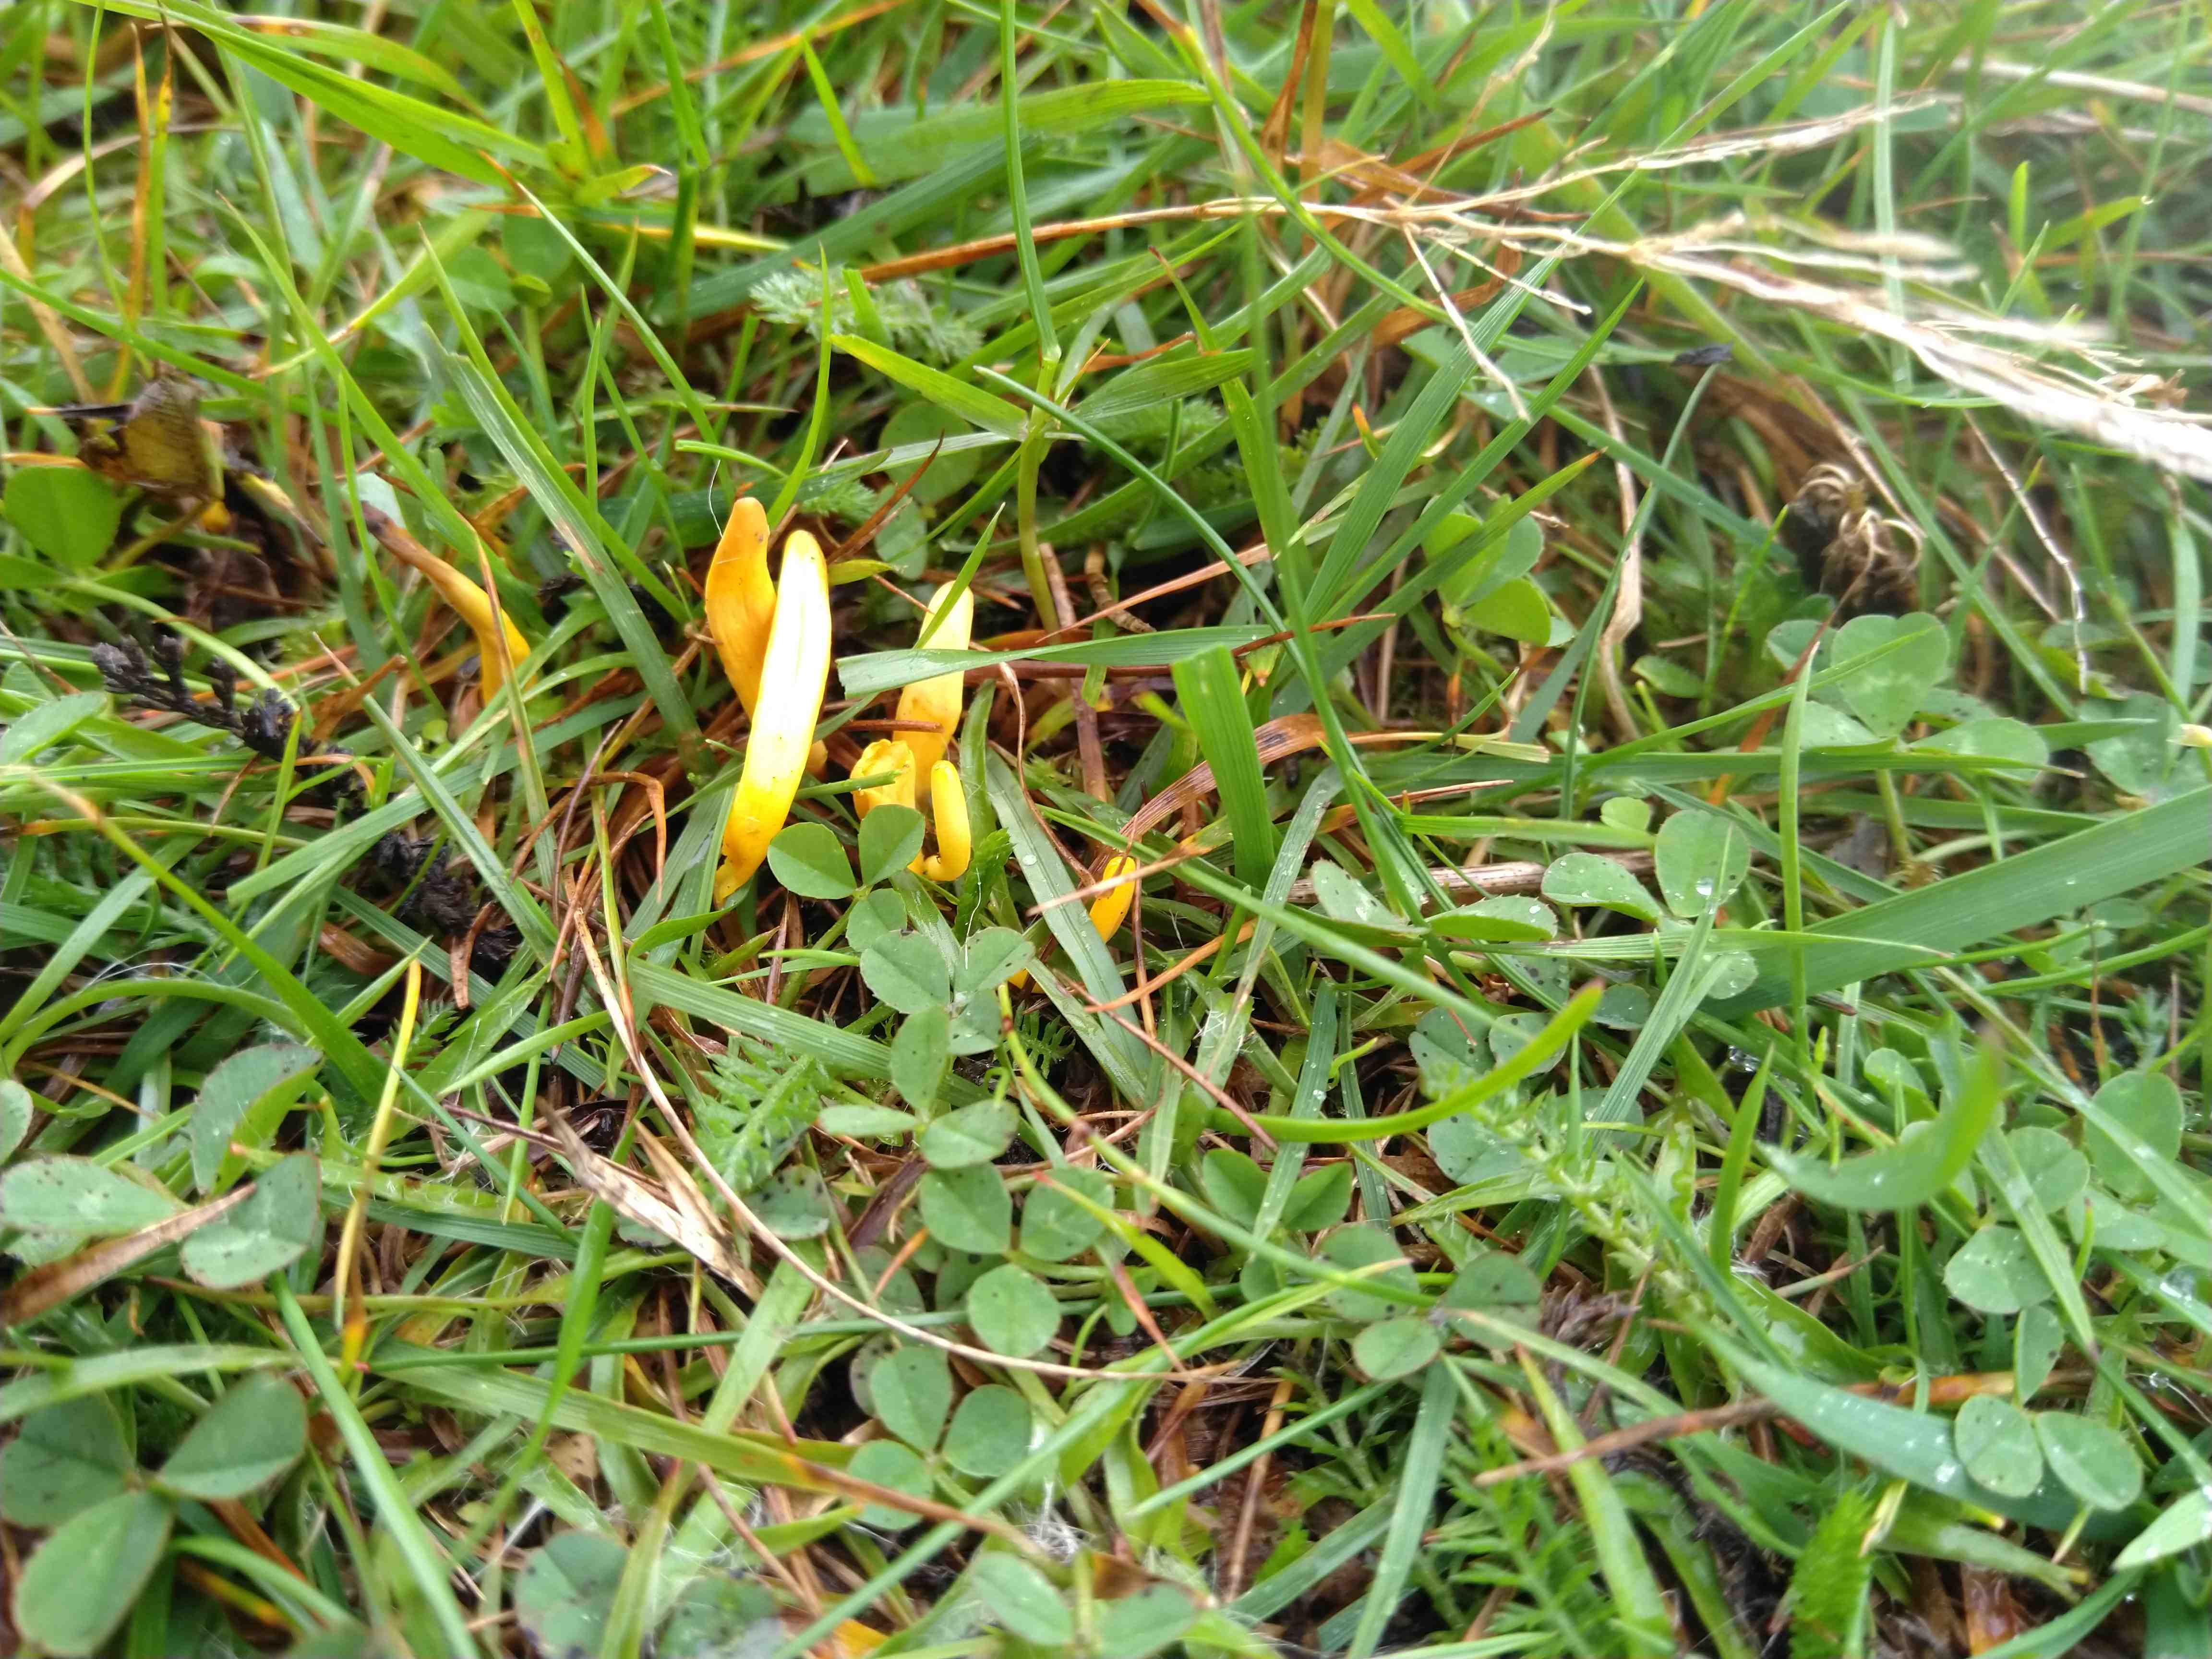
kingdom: Fungi
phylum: Basidiomycota
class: Agaricomycetes
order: Agaricales
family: Clavariaceae
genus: Clavulinopsis
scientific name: Clavulinopsis laeticolor
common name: flamme-køllesvamp
